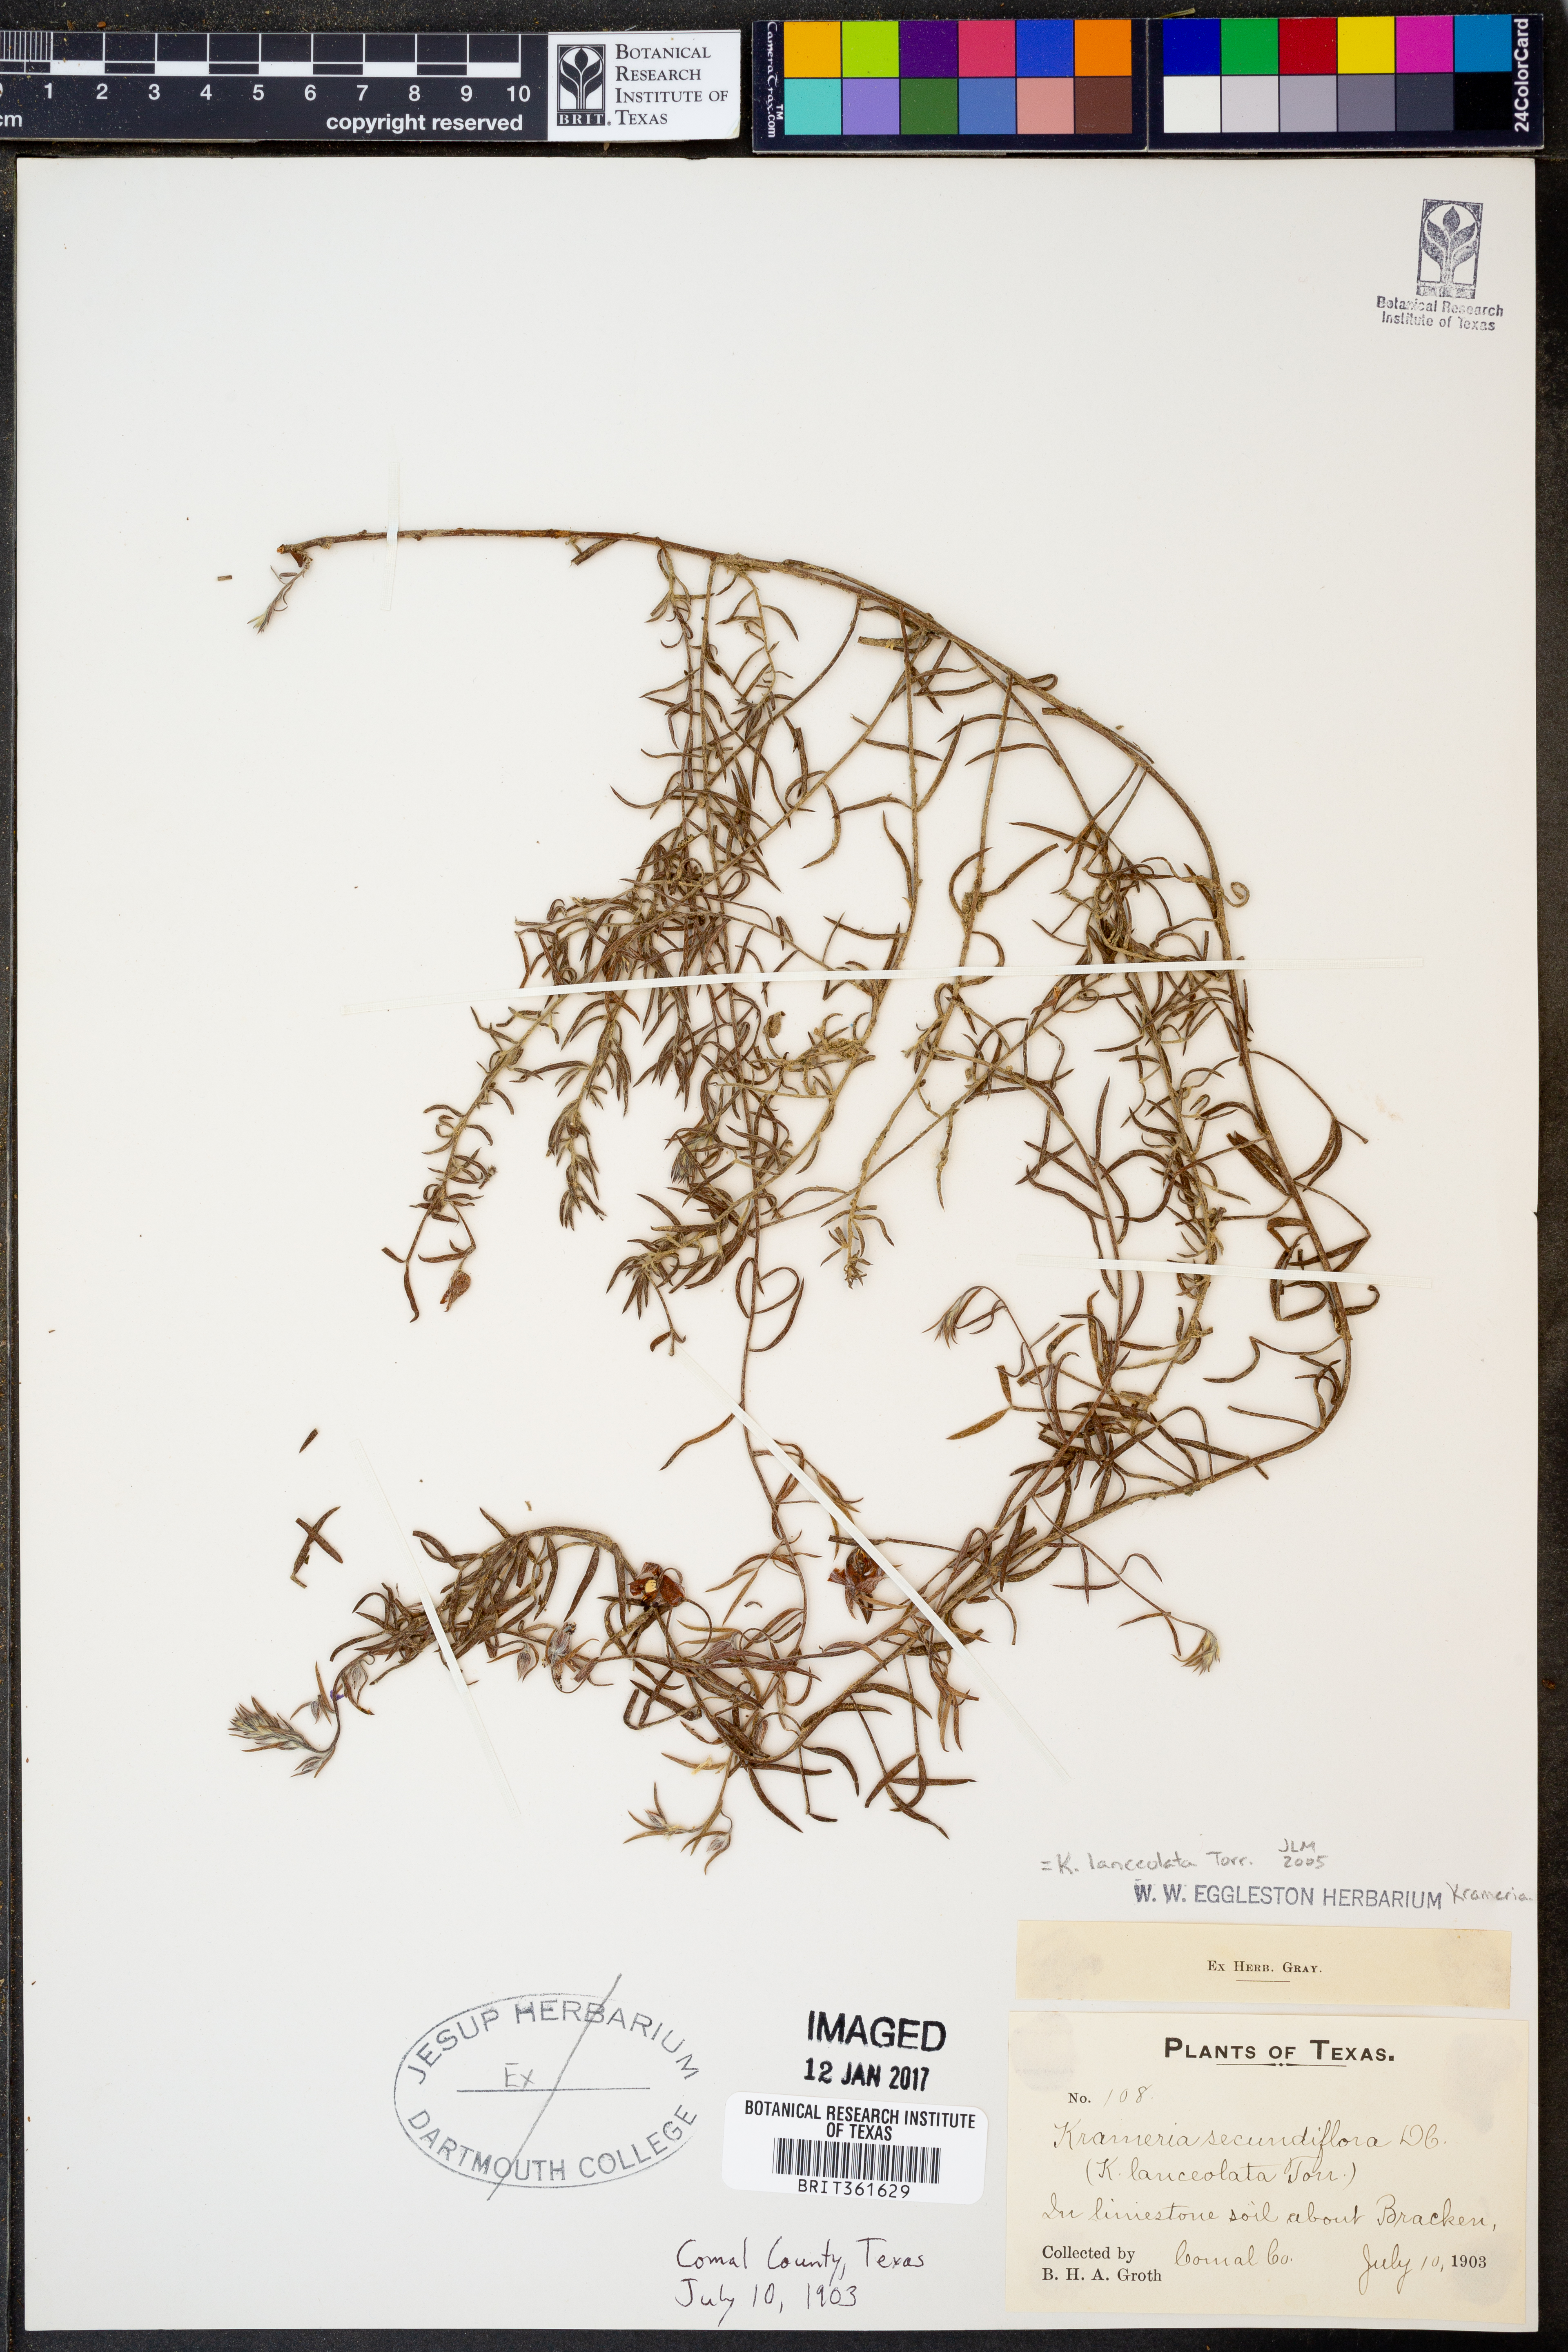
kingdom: Plantae
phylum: Tracheophyta
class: Magnoliopsida
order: Zygophyllales
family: Krameriaceae
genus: Krameria
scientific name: Krameria lanceolata
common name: Ratany
